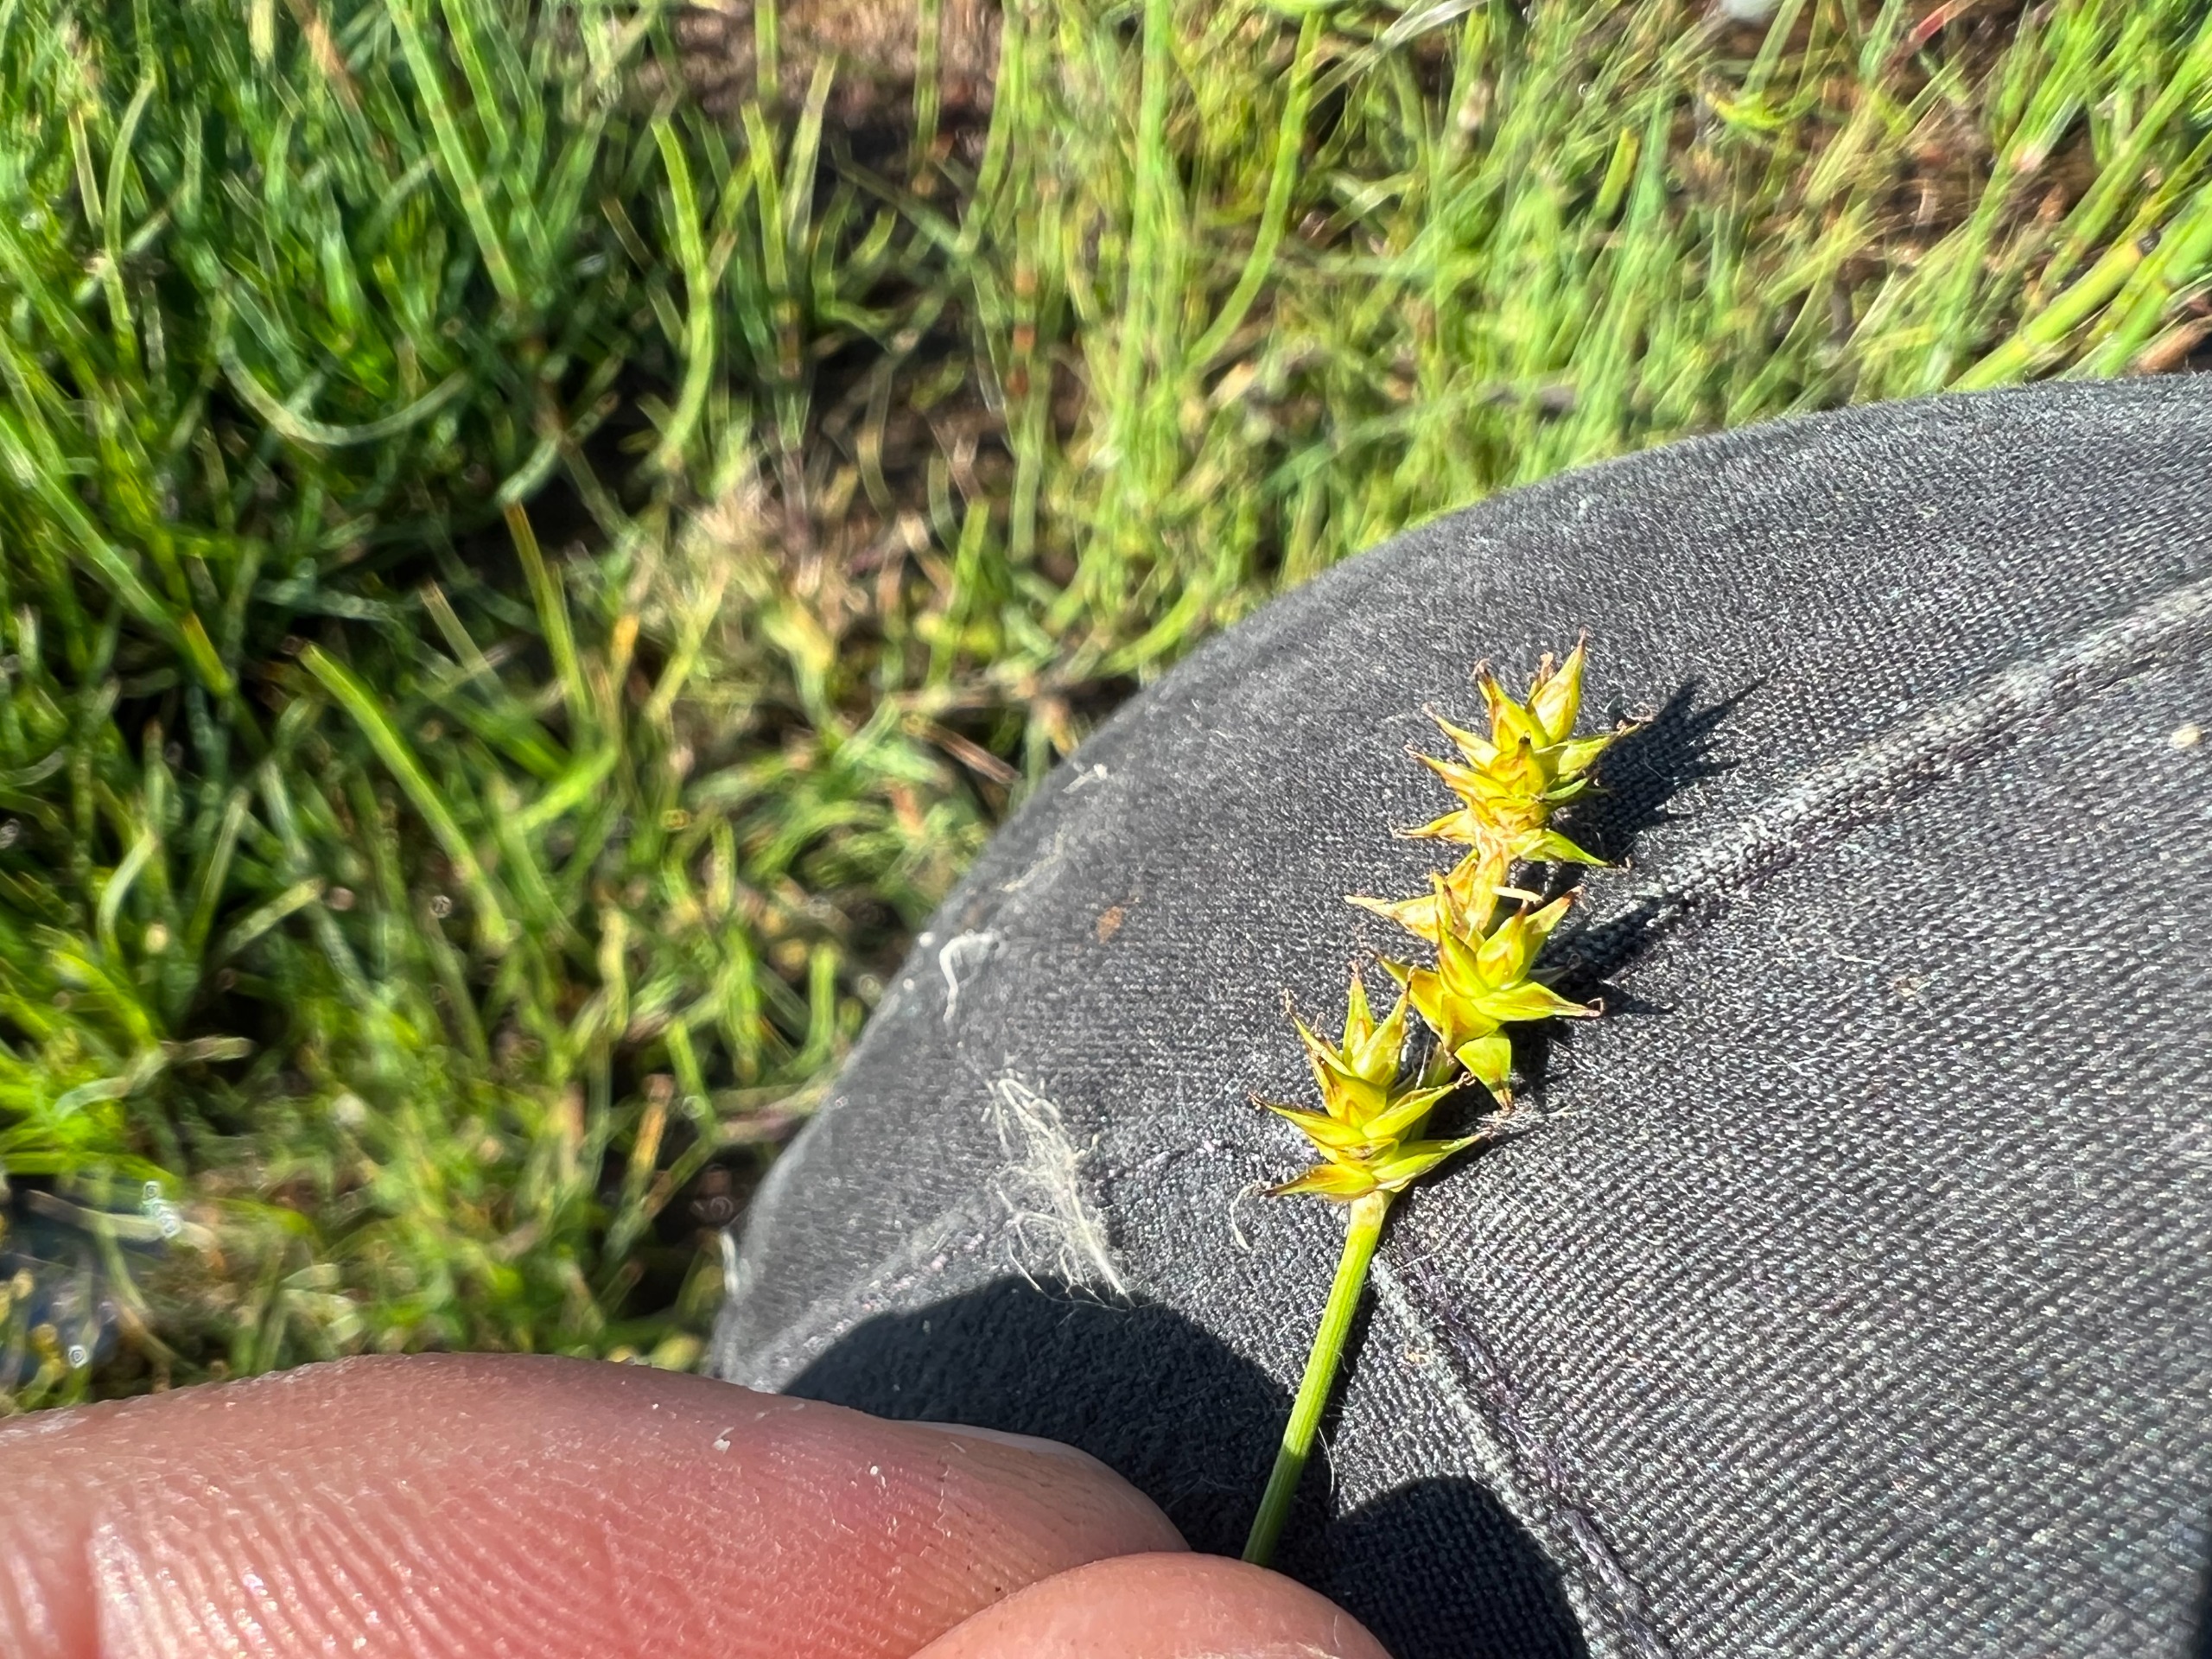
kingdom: Plantae
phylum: Tracheophyta
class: Liliopsida
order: Poales
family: Cyperaceae
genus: Carex
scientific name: Carex echinata
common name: Stjerne-star
